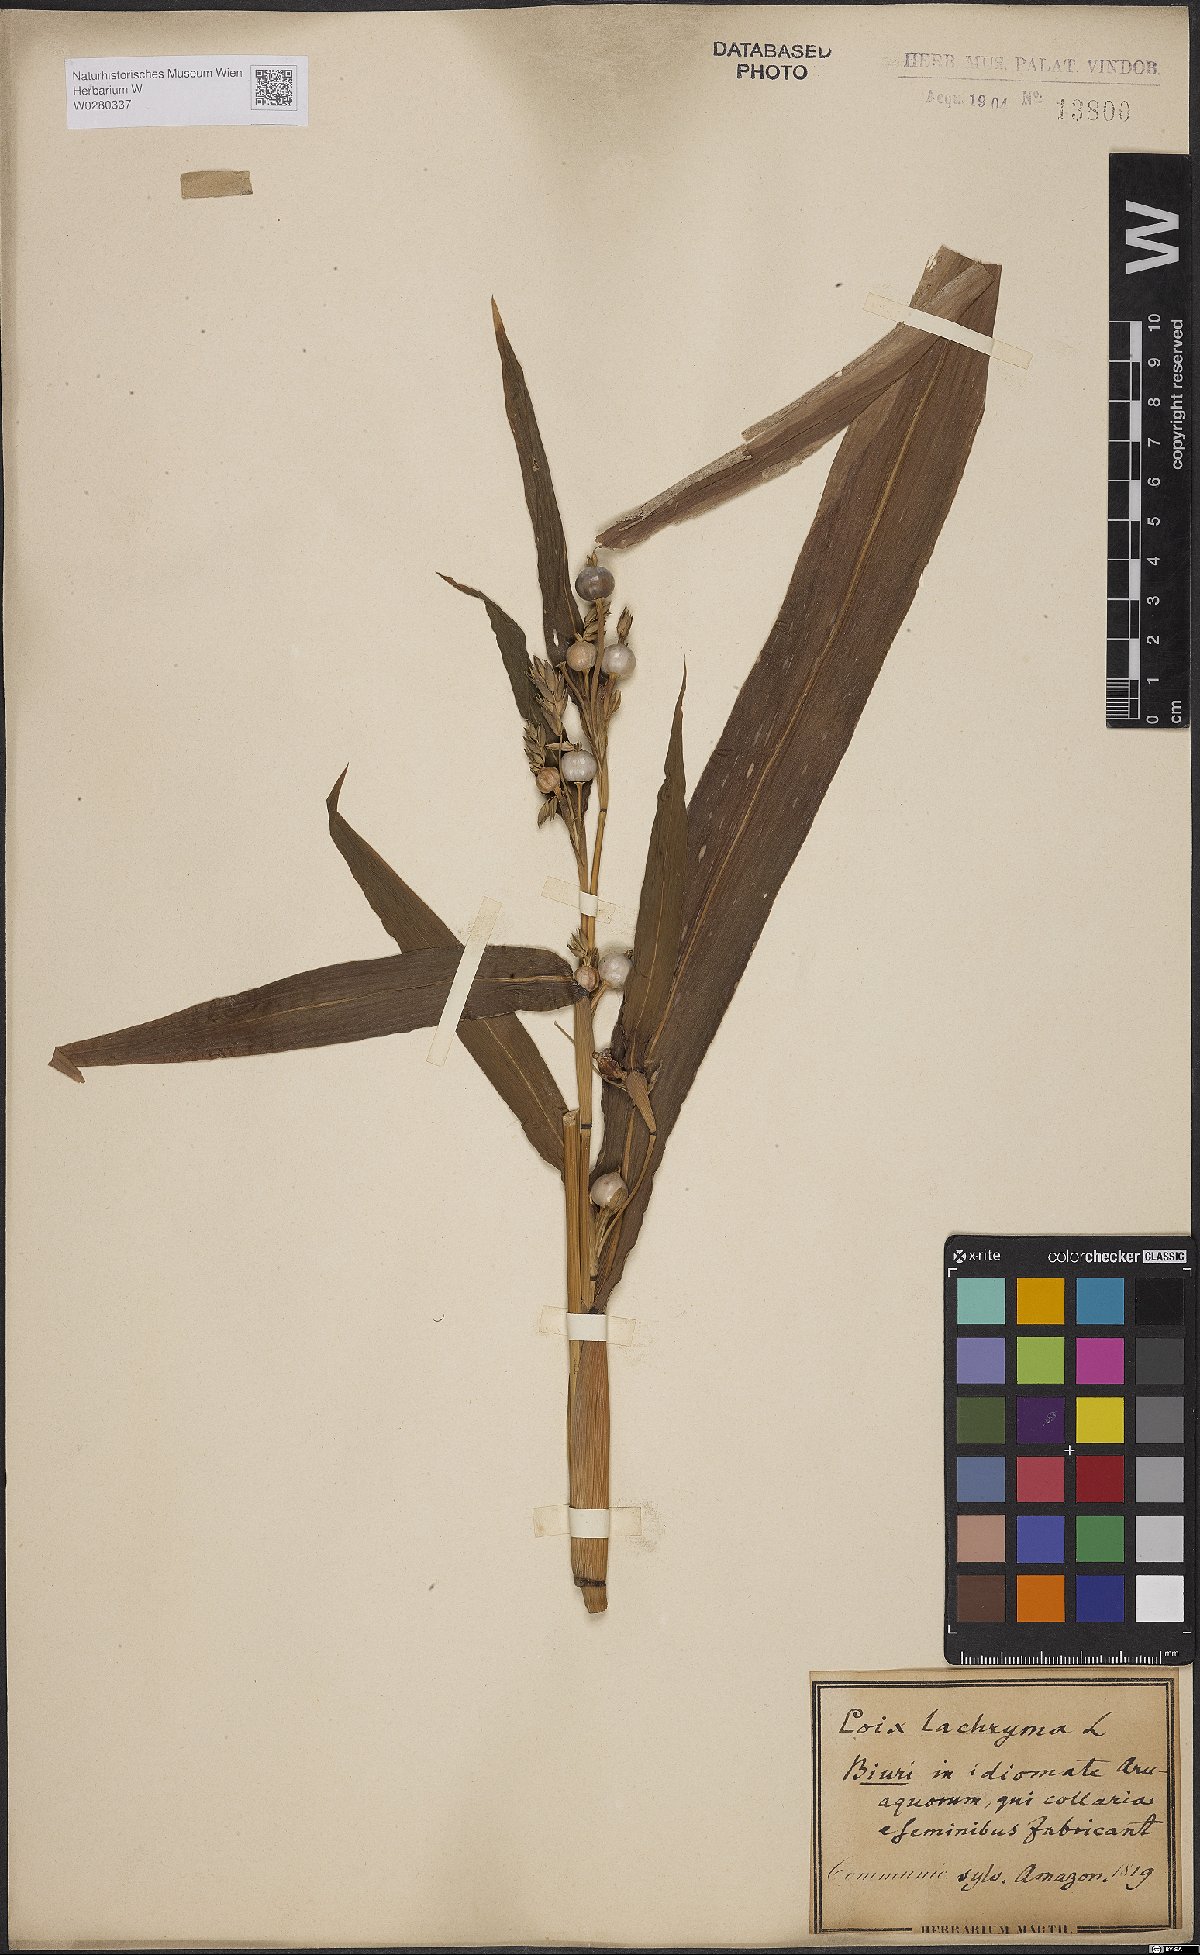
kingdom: Plantae
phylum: Tracheophyta
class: Liliopsida
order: Poales
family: Poaceae
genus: Coix
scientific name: Coix lacryma-jobi
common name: Job's tears
